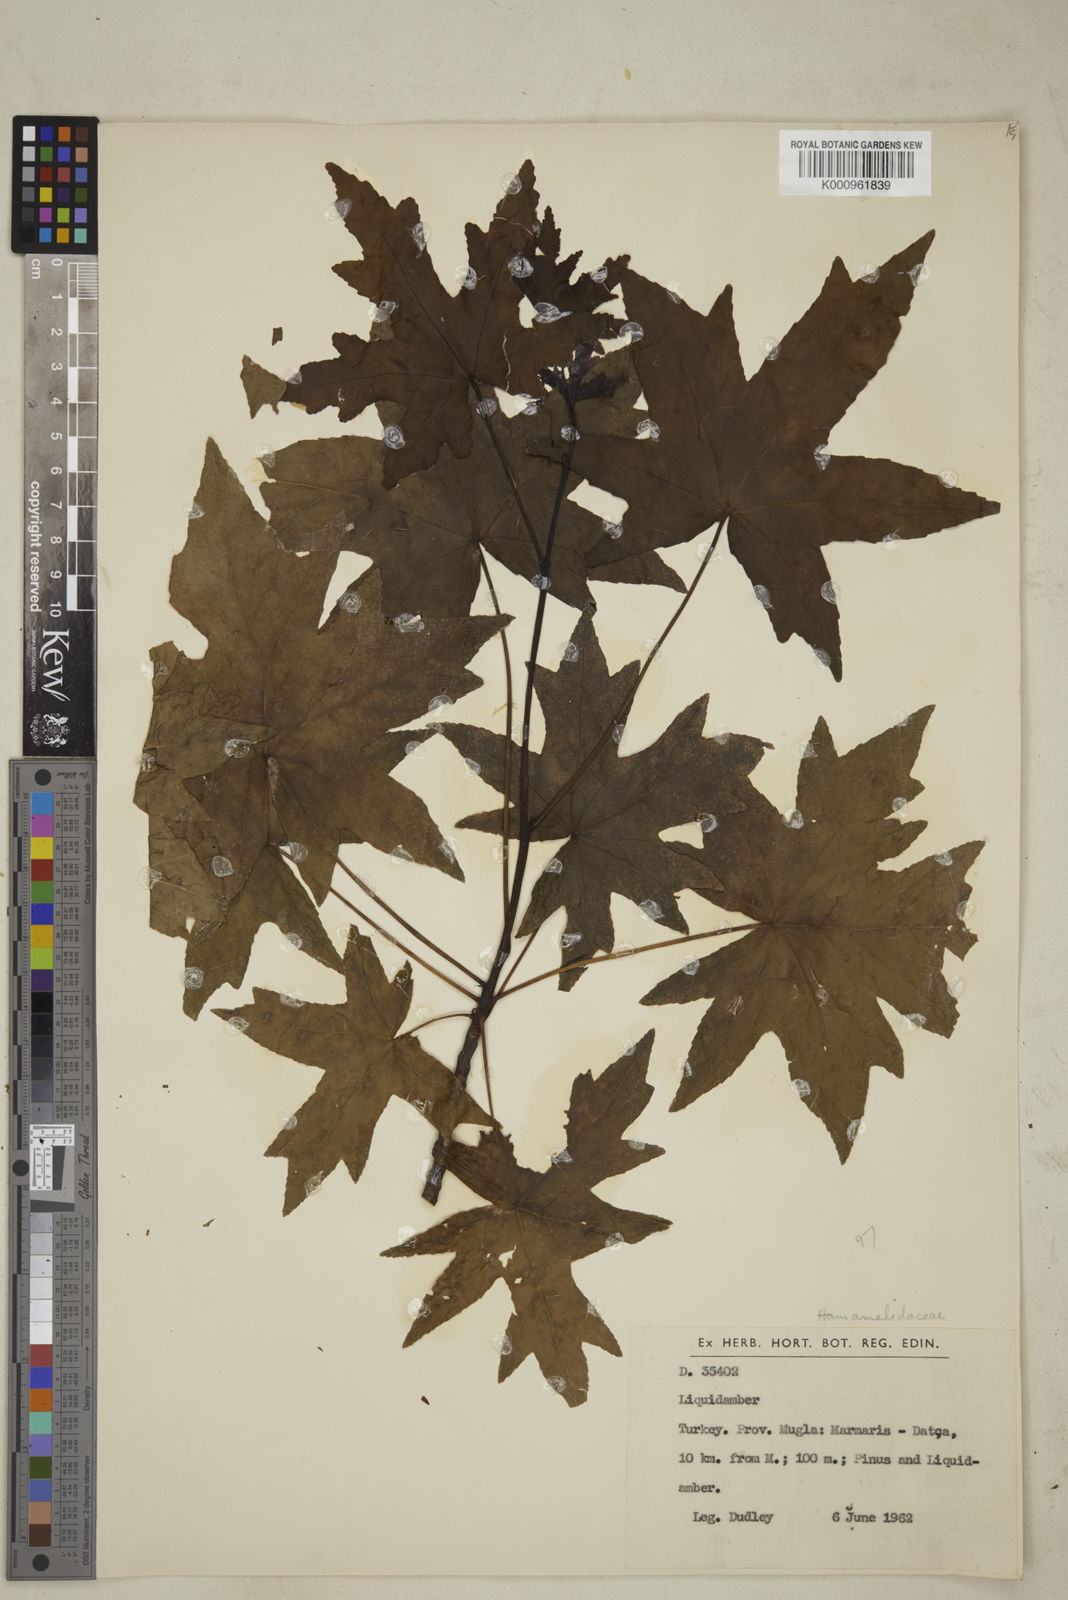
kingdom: Plantae
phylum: Tracheophyta
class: Magnoliopsida
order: Saxifragales
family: Altingiaceae
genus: Liquidambar
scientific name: Liquidambar orientalis
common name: Oriental sweetgum
